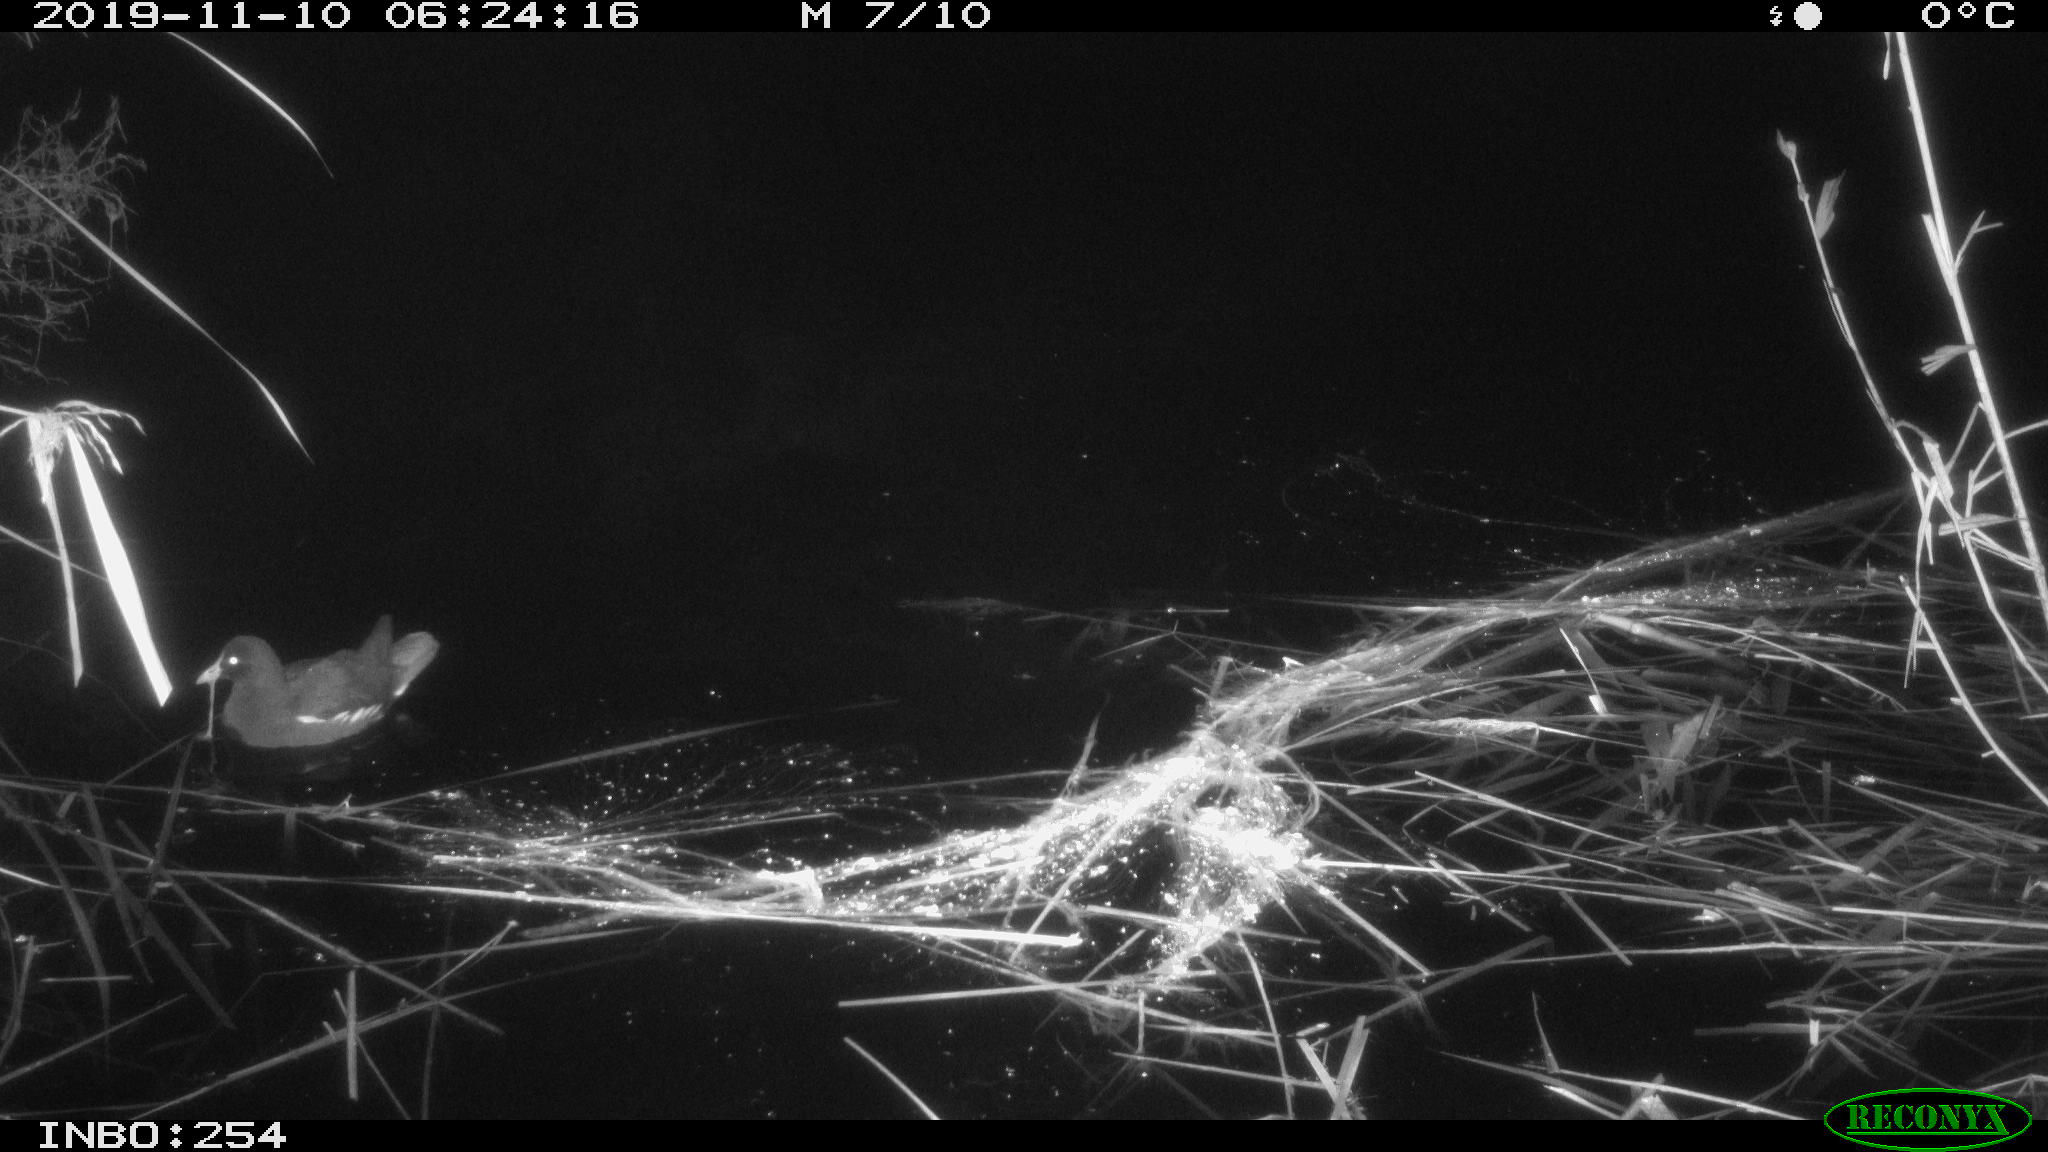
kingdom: Animalia
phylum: Chordata
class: Aves
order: Gruiformes
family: Rallidae
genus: Gallinula
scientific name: Gallinula chloropus
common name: Common moorhen
